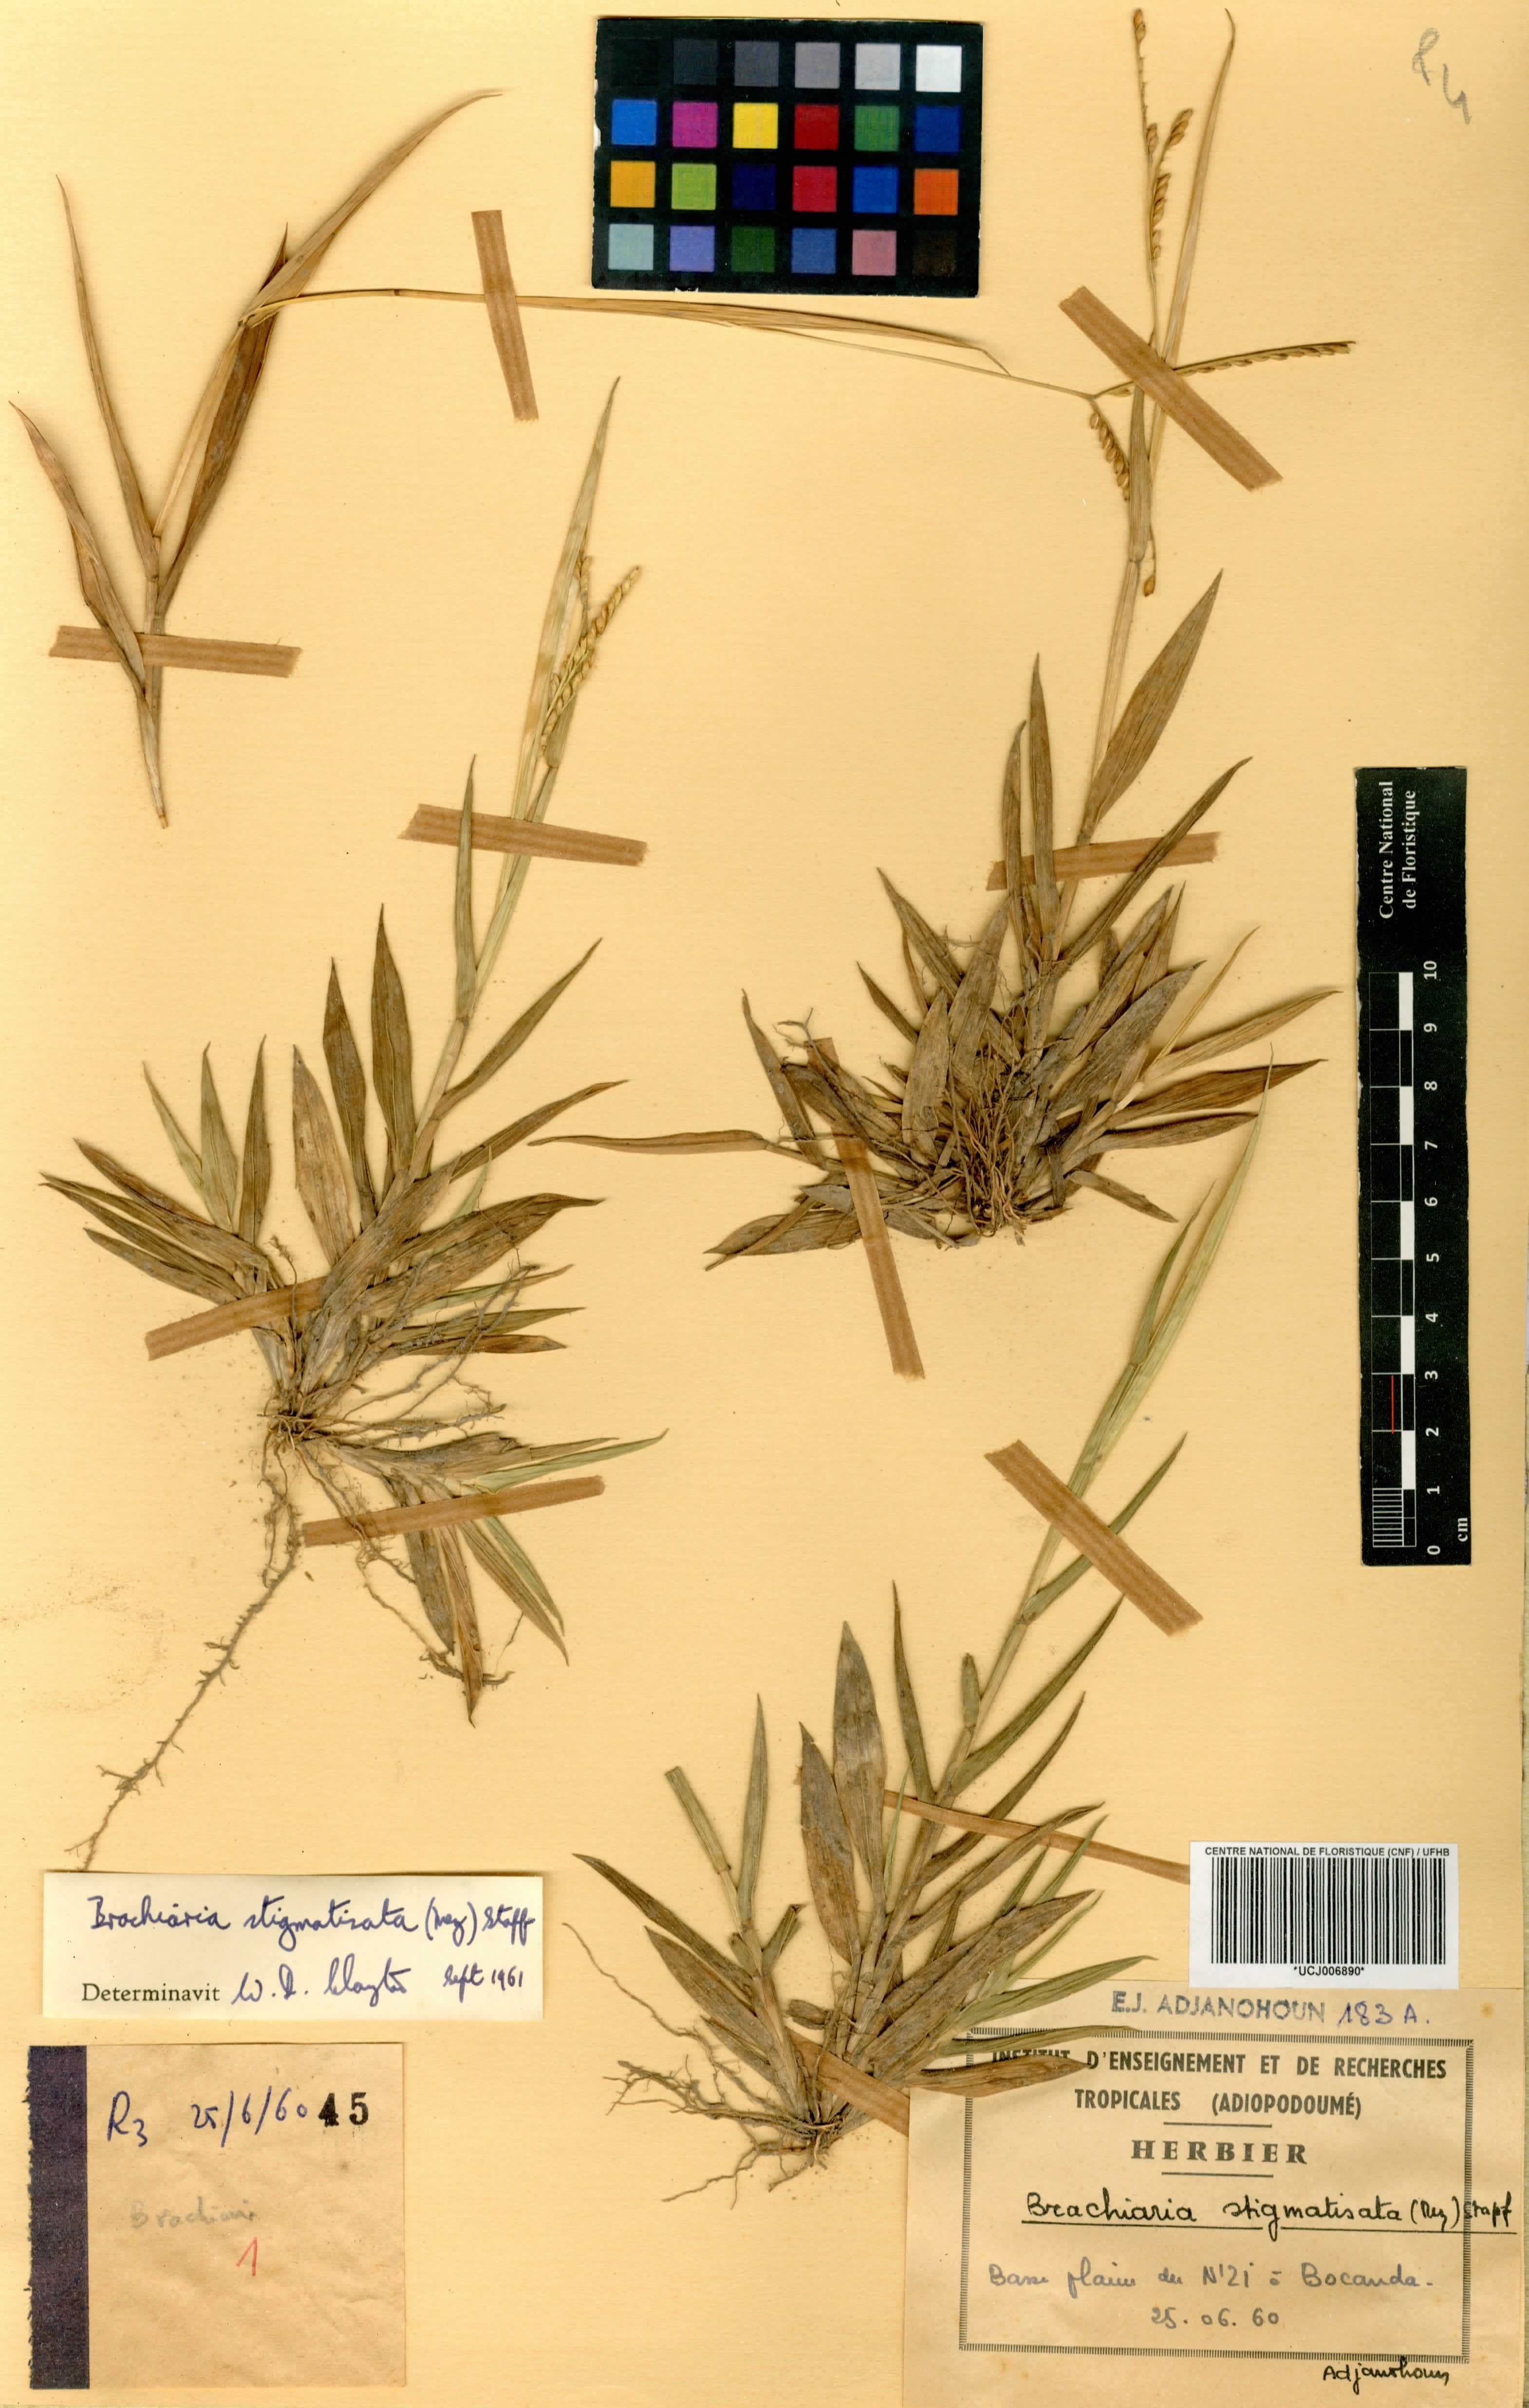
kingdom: Plantae
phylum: Tracheophyta
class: Liliopsida
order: Poales
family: Poaceae
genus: Urochloa
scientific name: Urochloa stigmatisata
